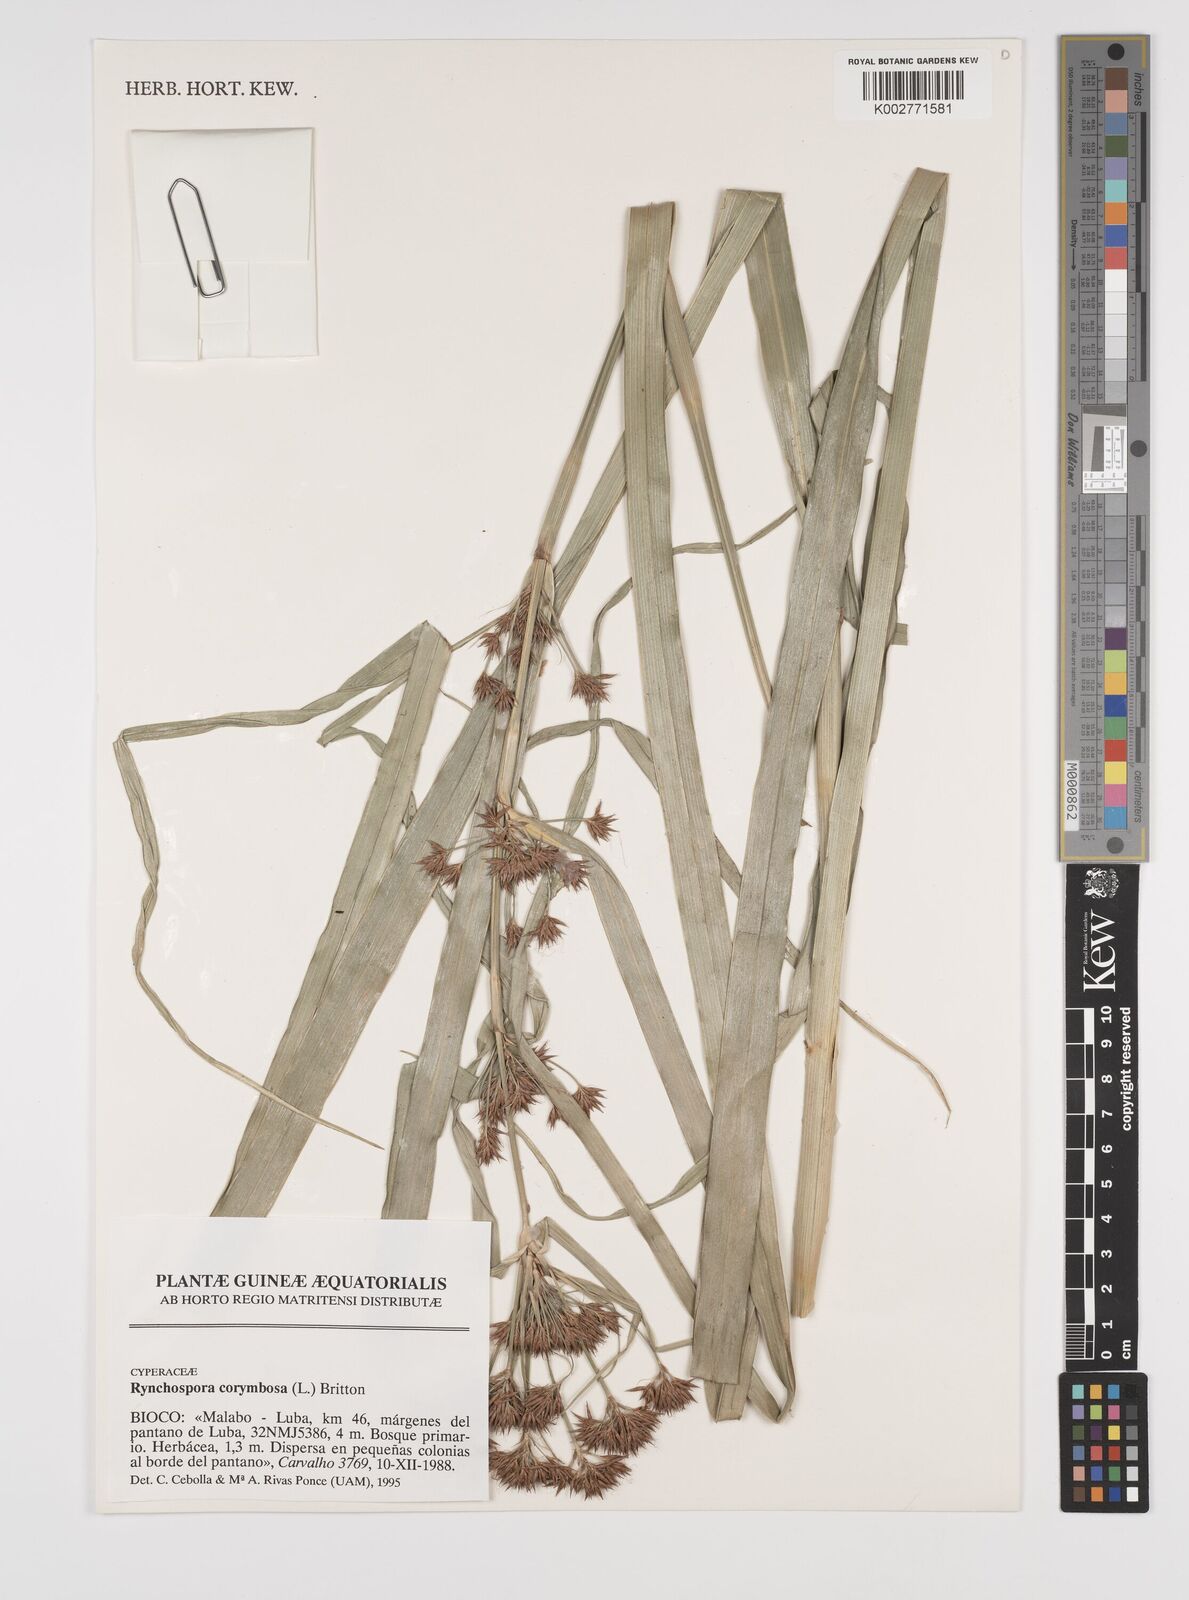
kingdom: Plantae
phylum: Tracheophyta
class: Liliopsida
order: Poales
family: Cyperaceae
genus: Rhynchospora
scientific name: Rhynchospora corymbosa
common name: Golden beak sedge
